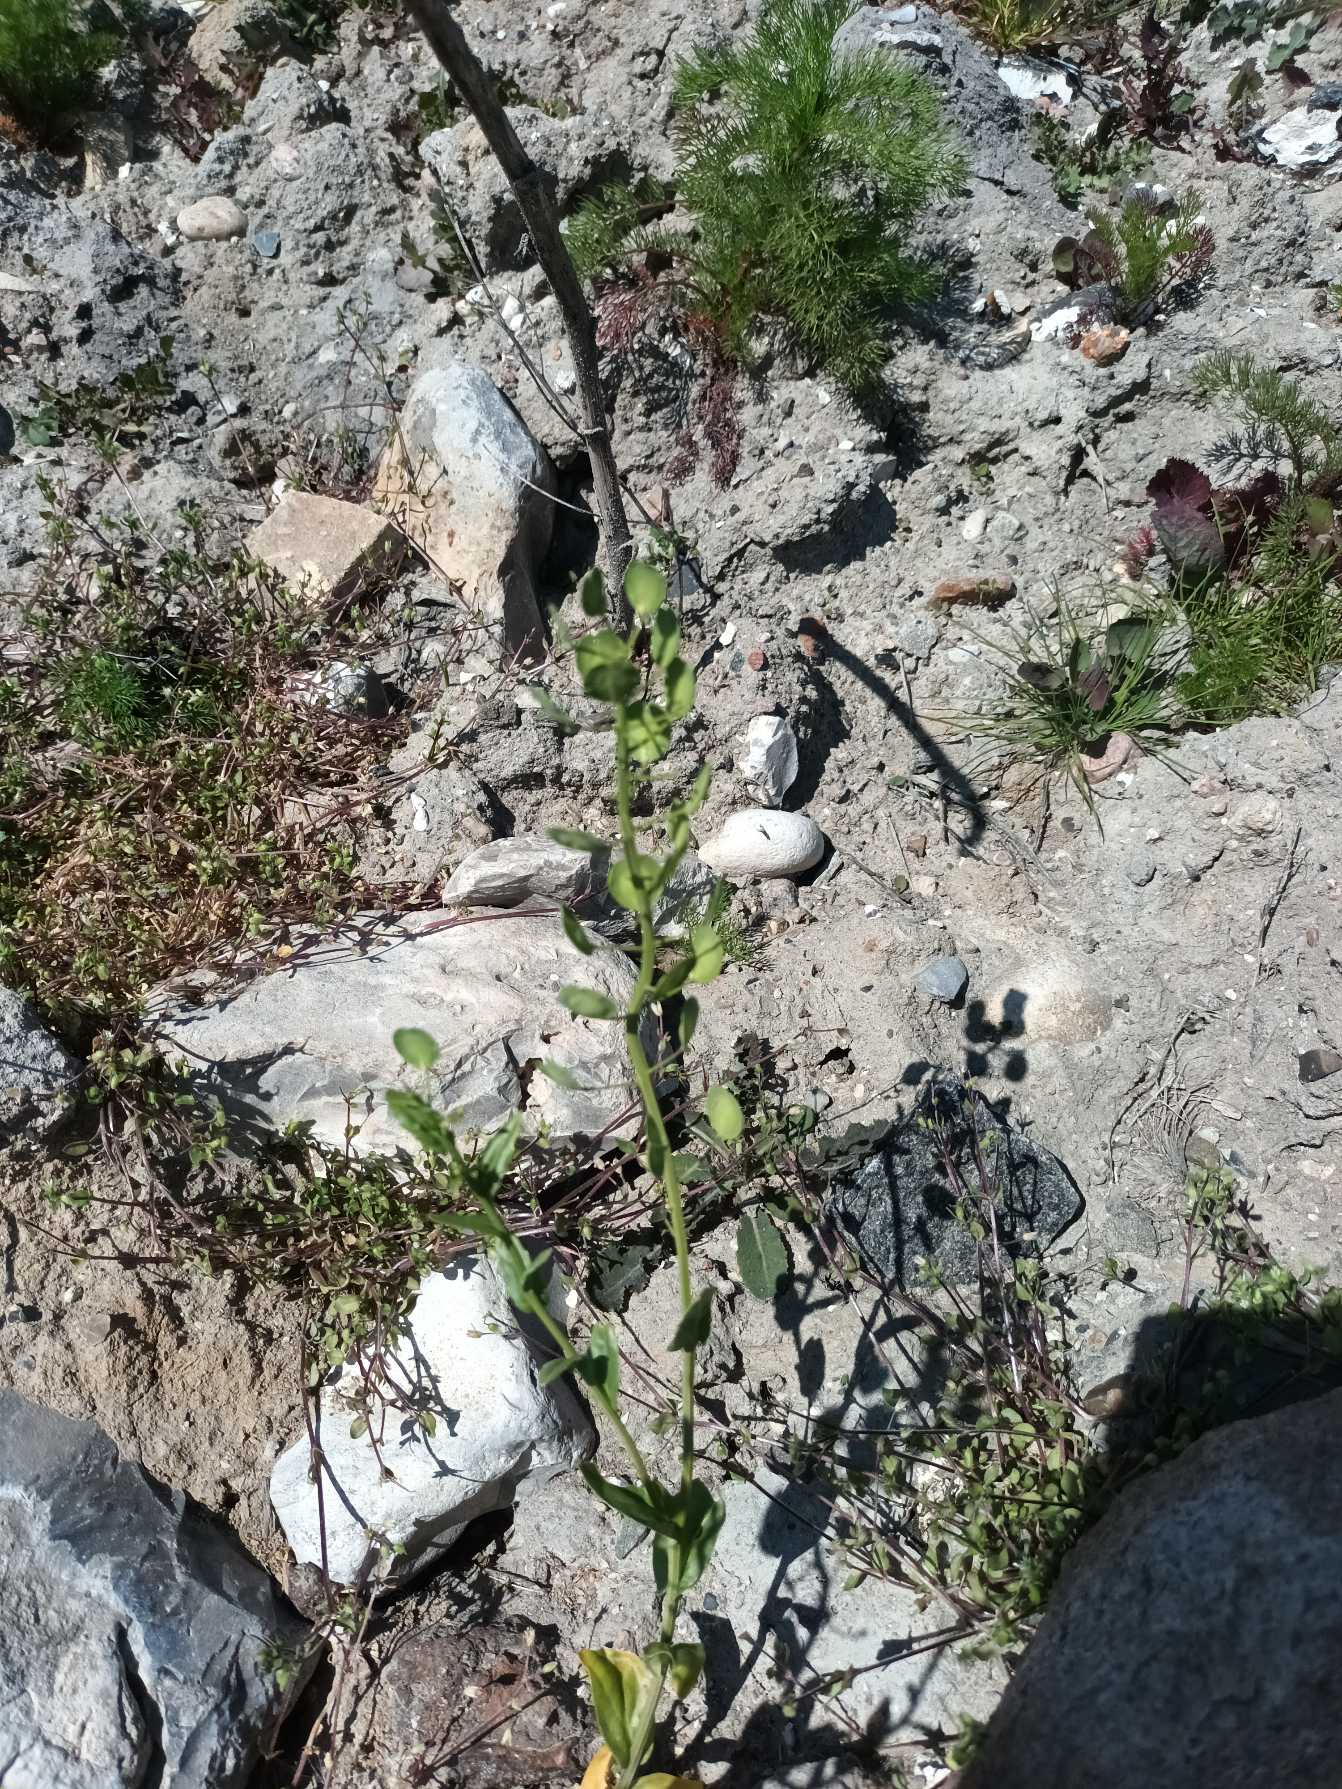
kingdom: Plantae
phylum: Tracheophyta
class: Magnoliopsida
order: Brassicales
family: Brassicaceae
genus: Thlaspi
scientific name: Thlaspi arvense
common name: Almindelig pengeurt
